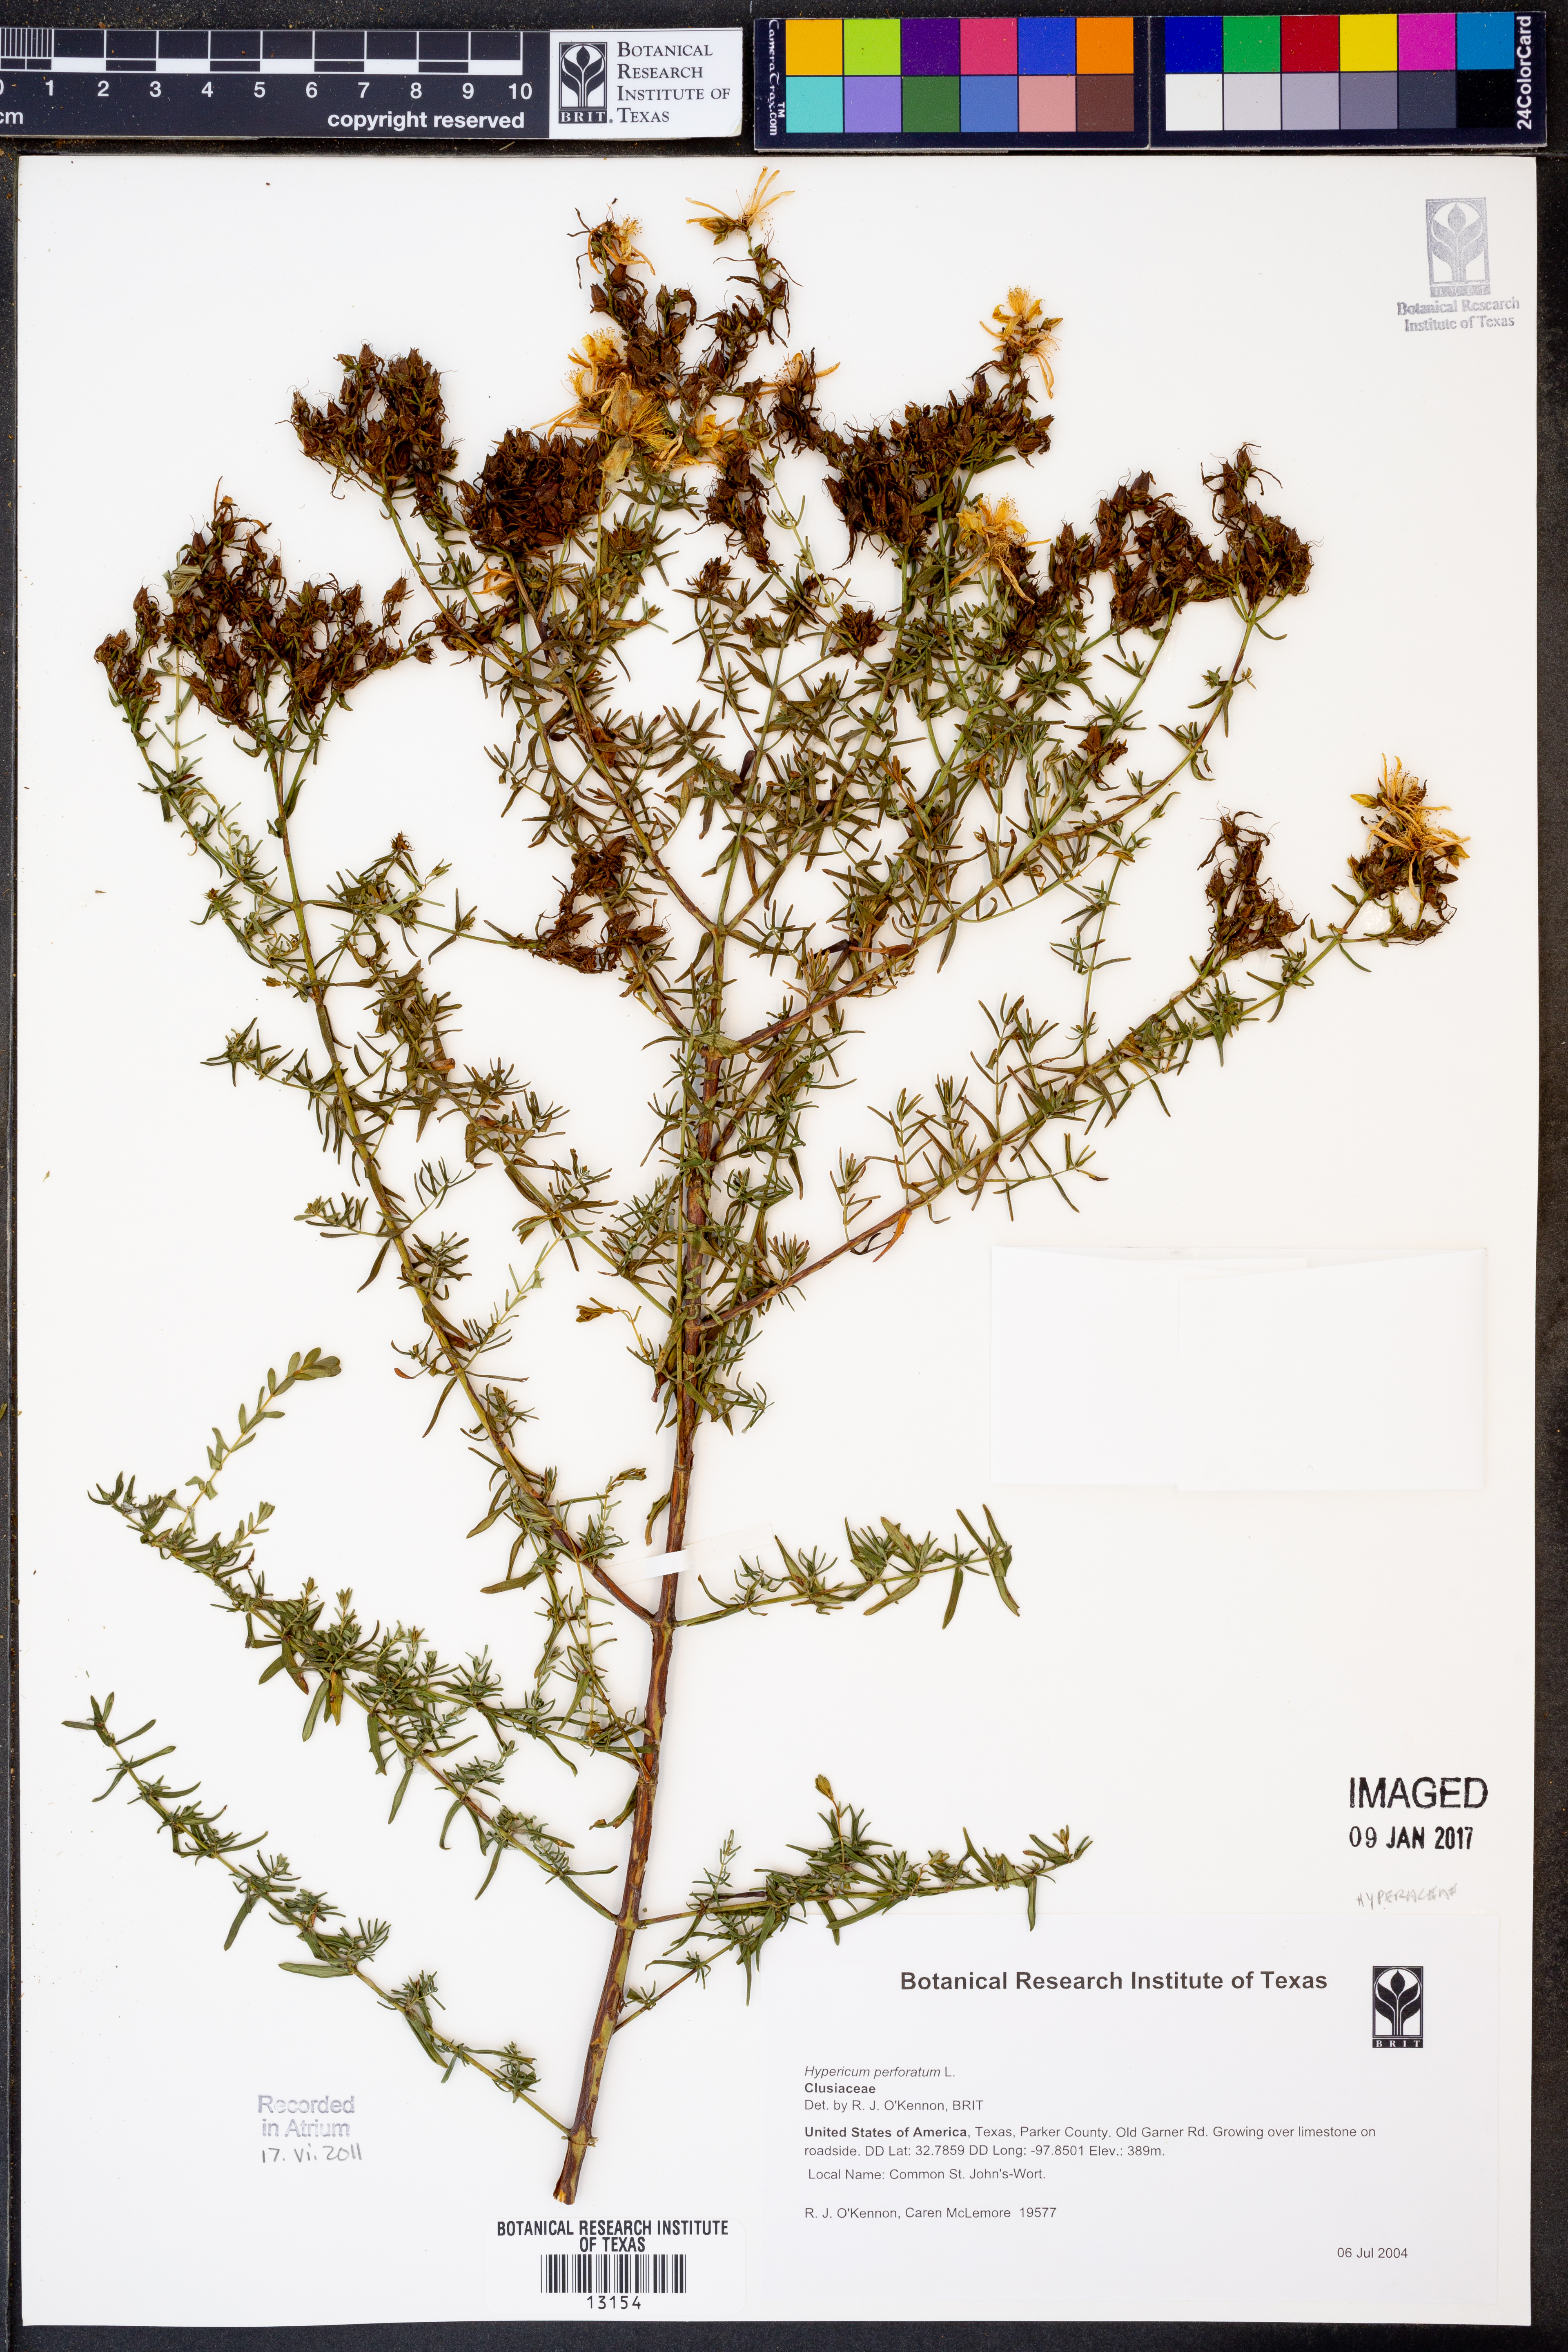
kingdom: Plantae
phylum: Tracheophyta
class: Magnoliopsida
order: Malpighiales
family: Hypericaceae
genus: Hypericum
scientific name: Hypericum perforatum
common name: Common st. johnswort
